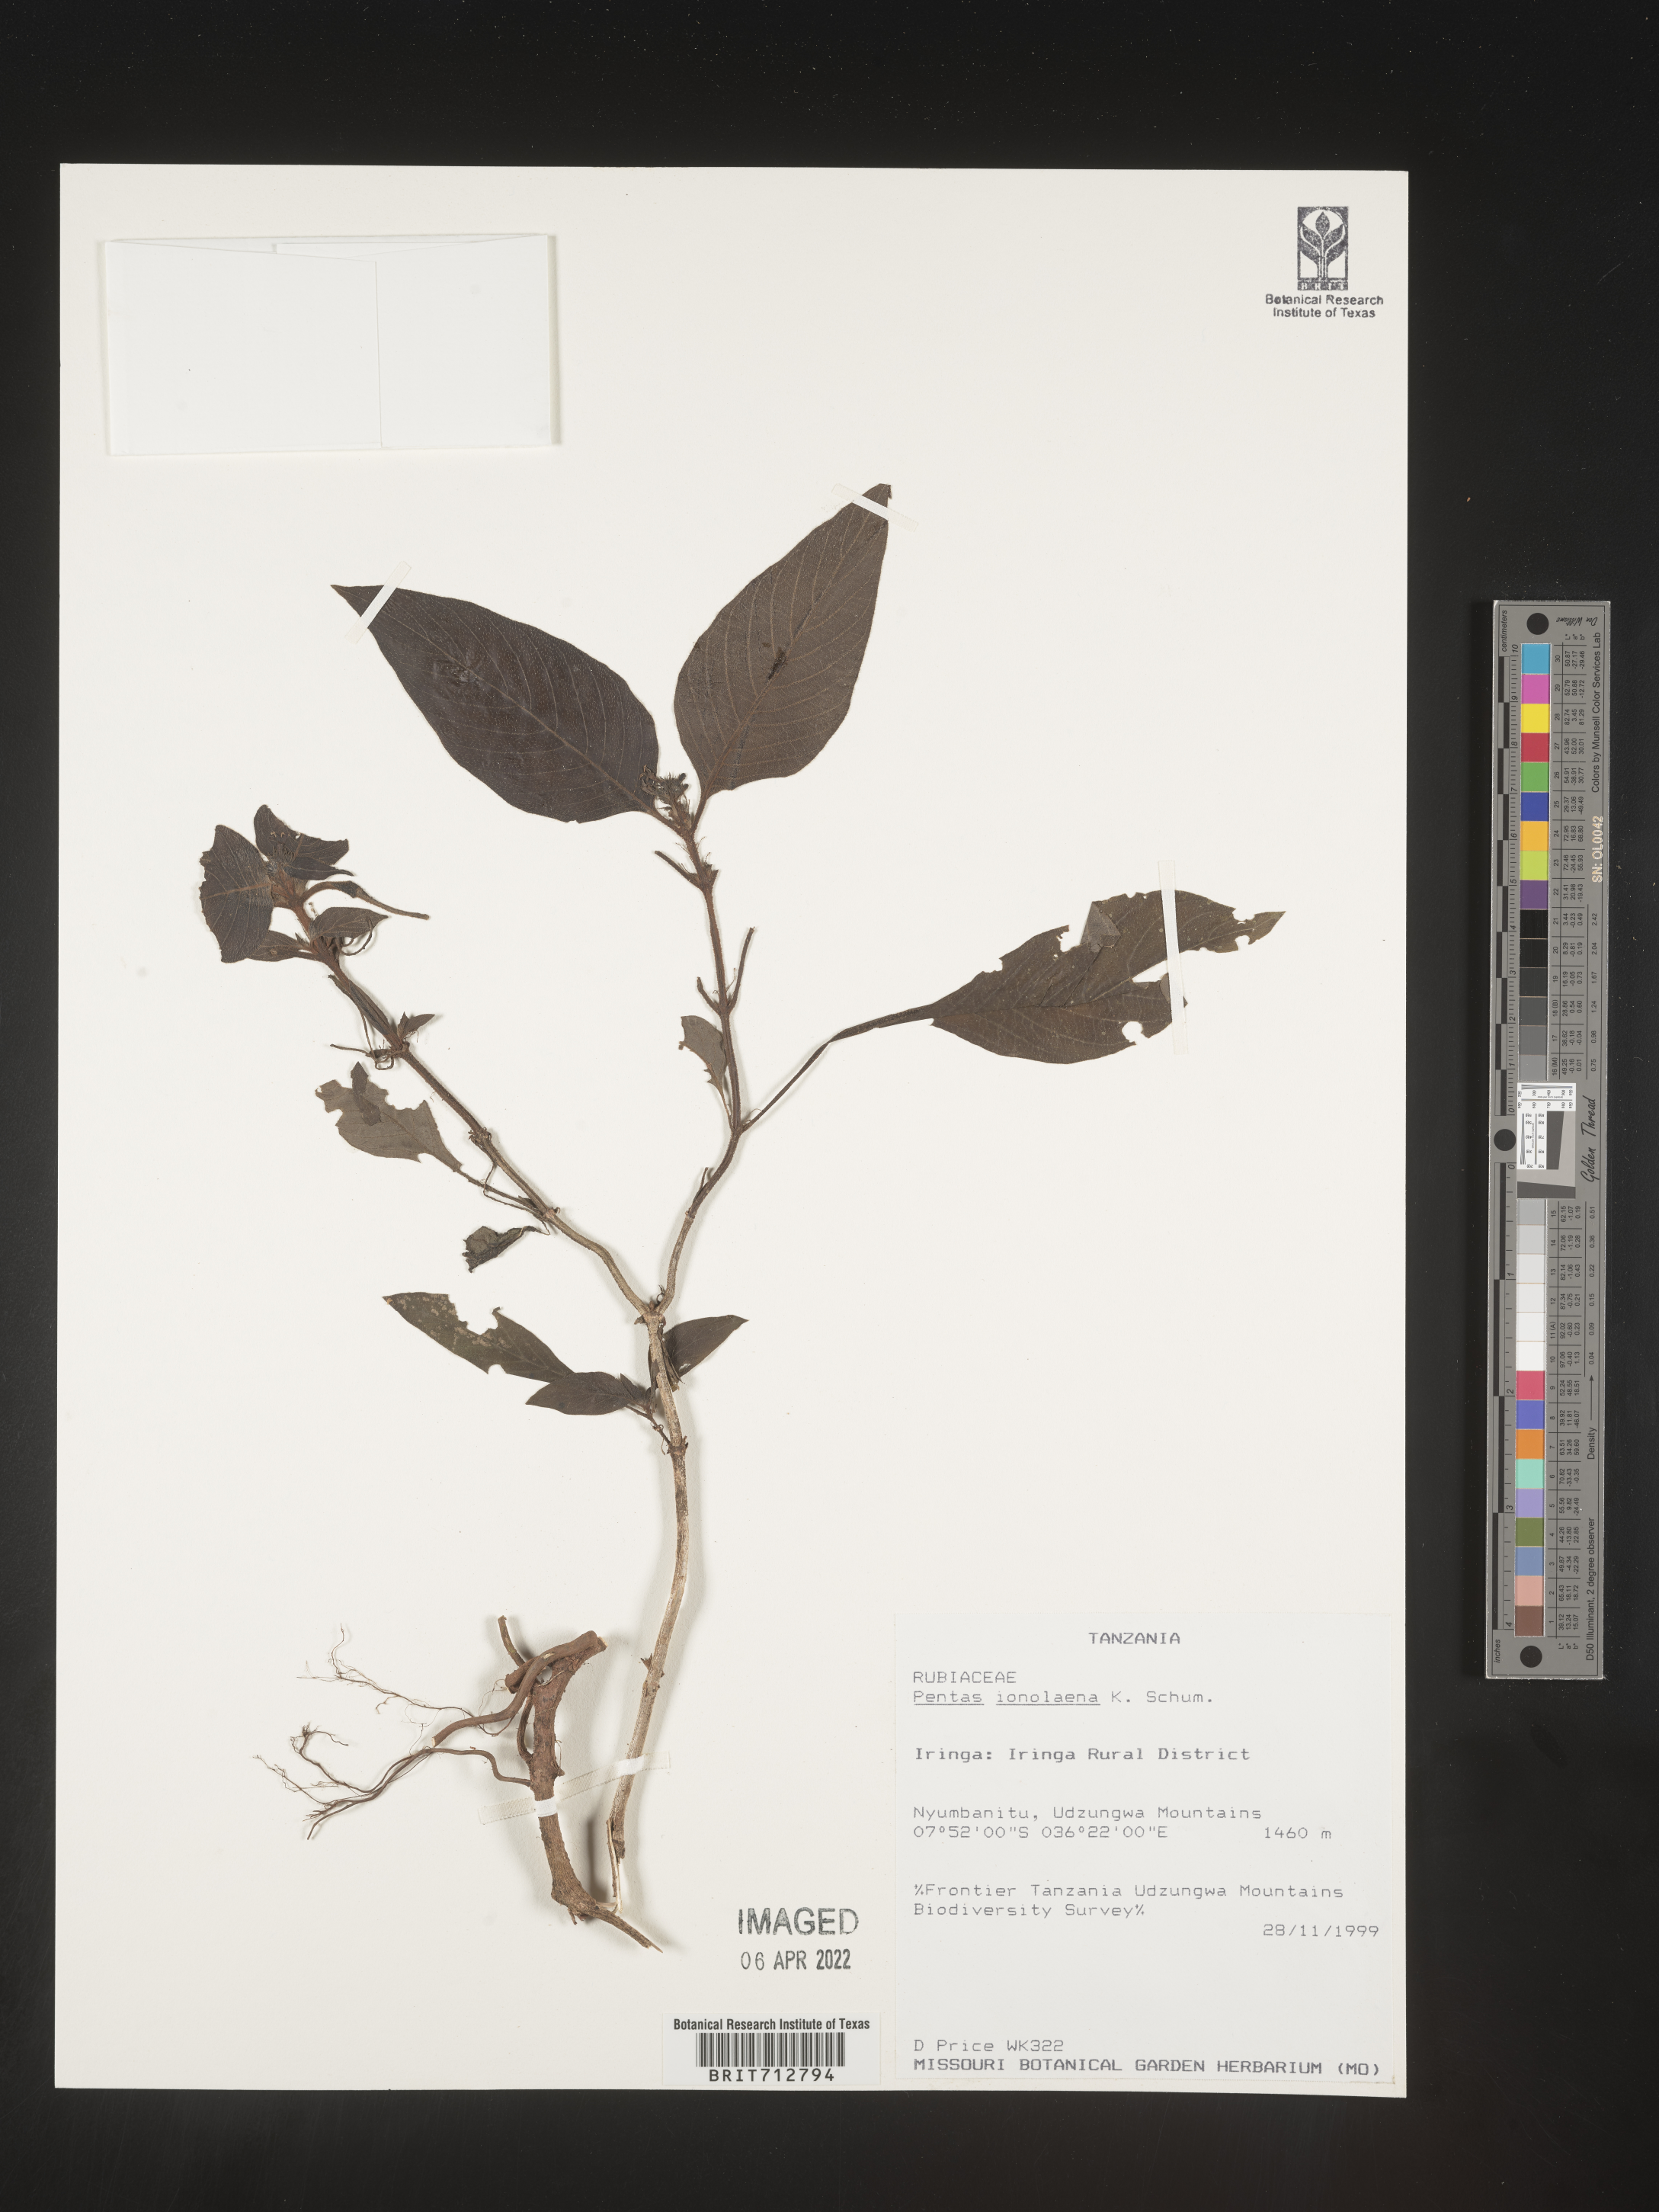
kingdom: Plantae
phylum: Tracheophyta
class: Magnoliopsida
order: Gentianales
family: Rubiaceae
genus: Pentas
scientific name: Pentas
